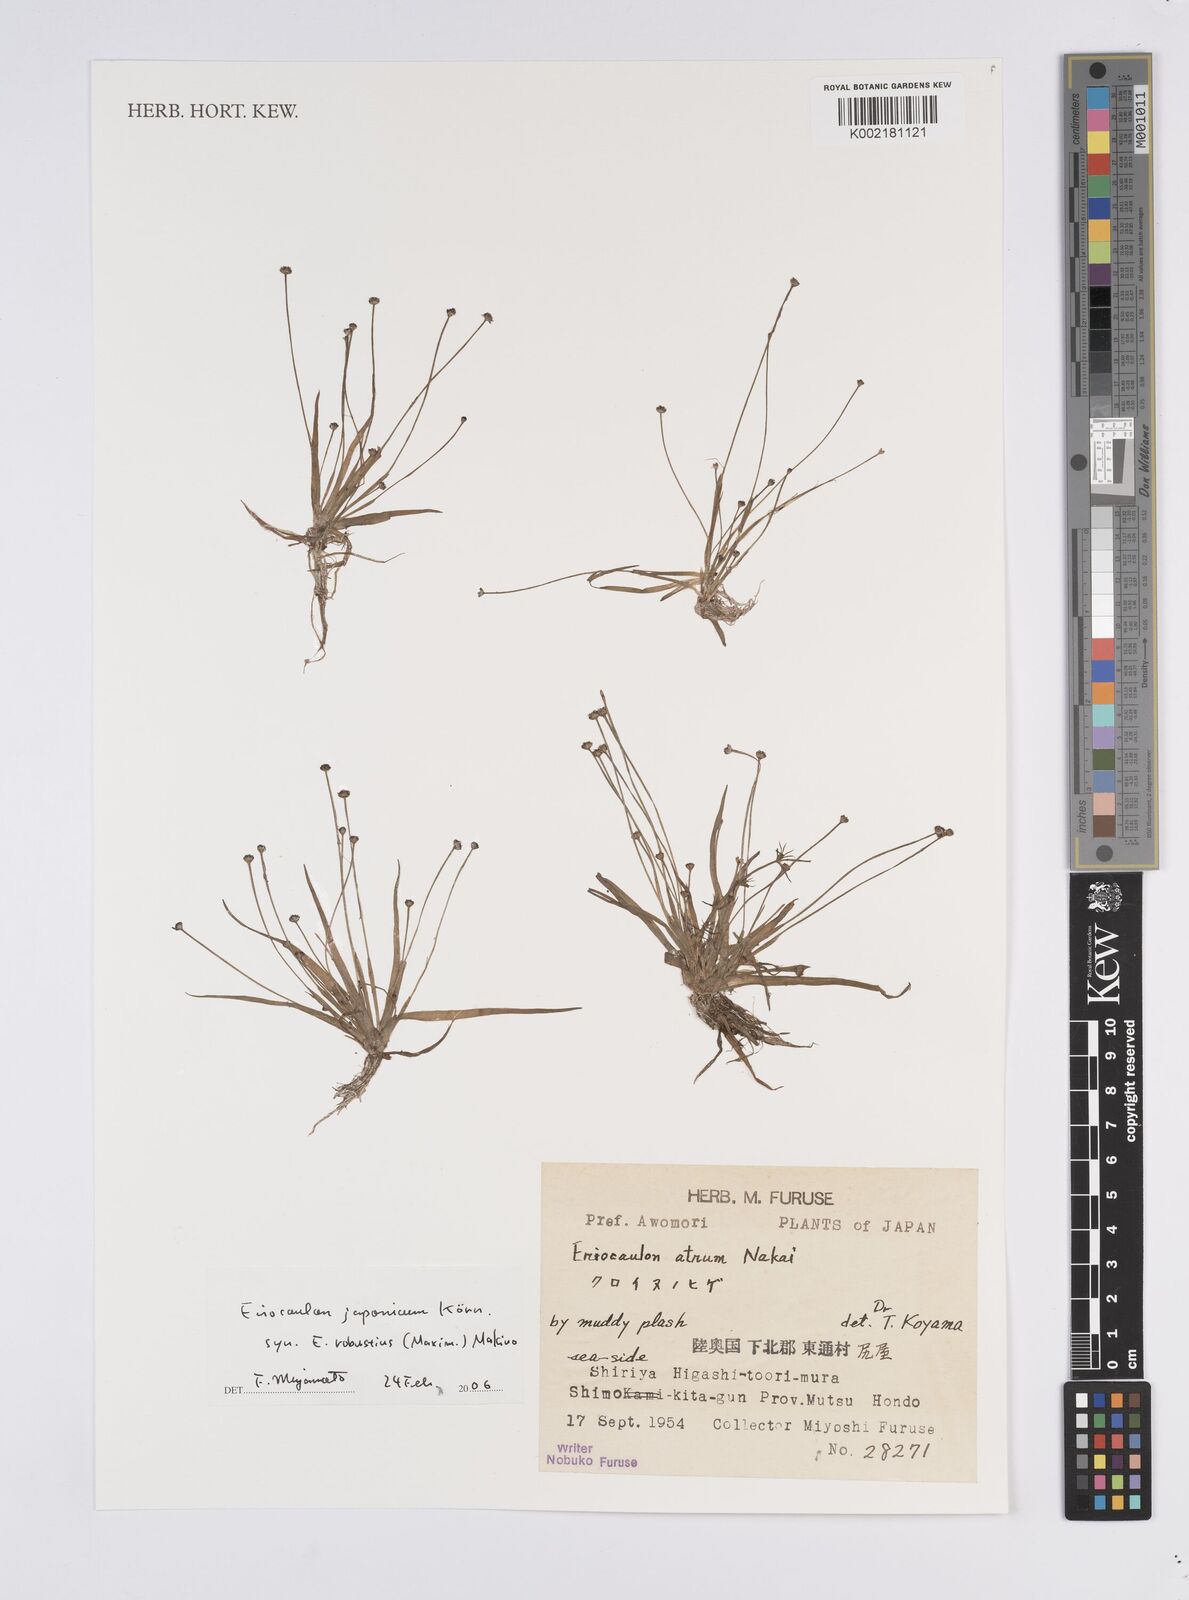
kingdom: Plantae
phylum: Tracheophyta
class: Liliopsida
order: Poales
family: Eriocaulaceae
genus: Eriocaulon
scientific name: Eriocaulon atrum
